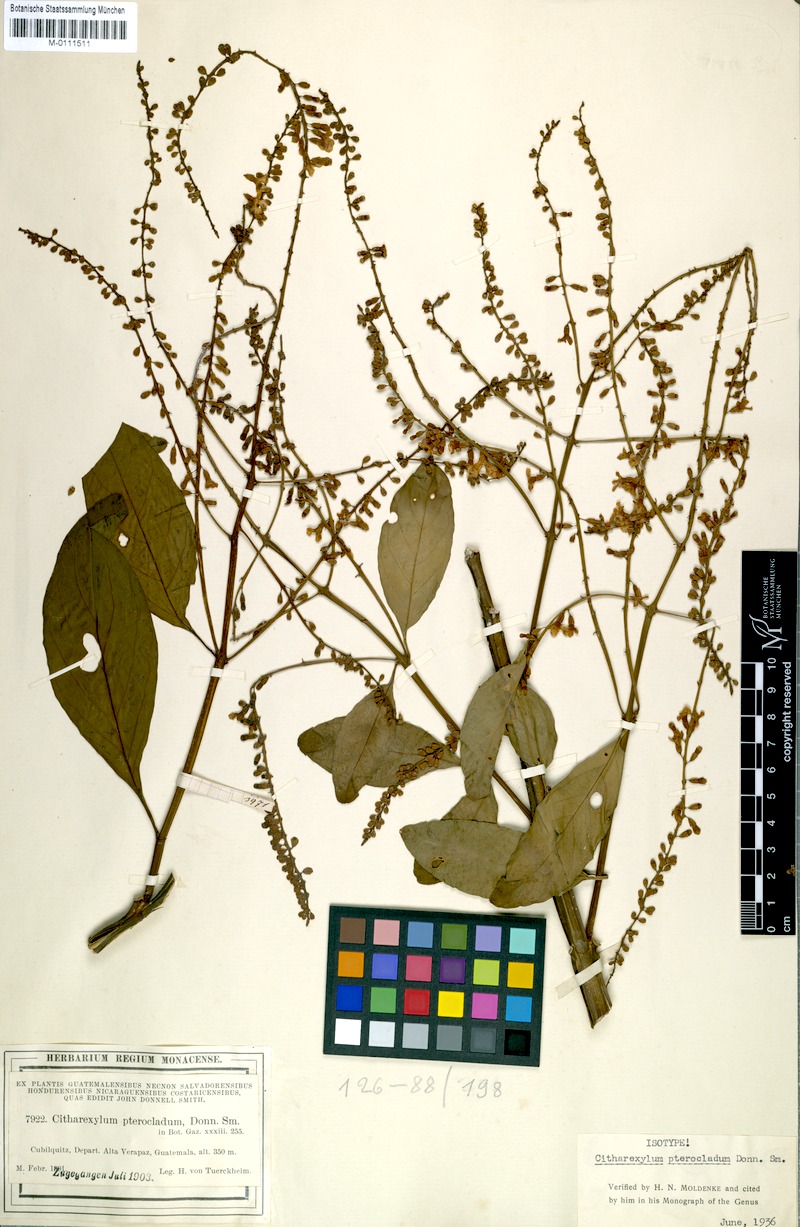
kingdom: Plantae
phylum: Tracheophyta
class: Magnoliopsida
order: Lamiales
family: Verbenaceae
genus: Citharexylum
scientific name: Citharexylum affine
